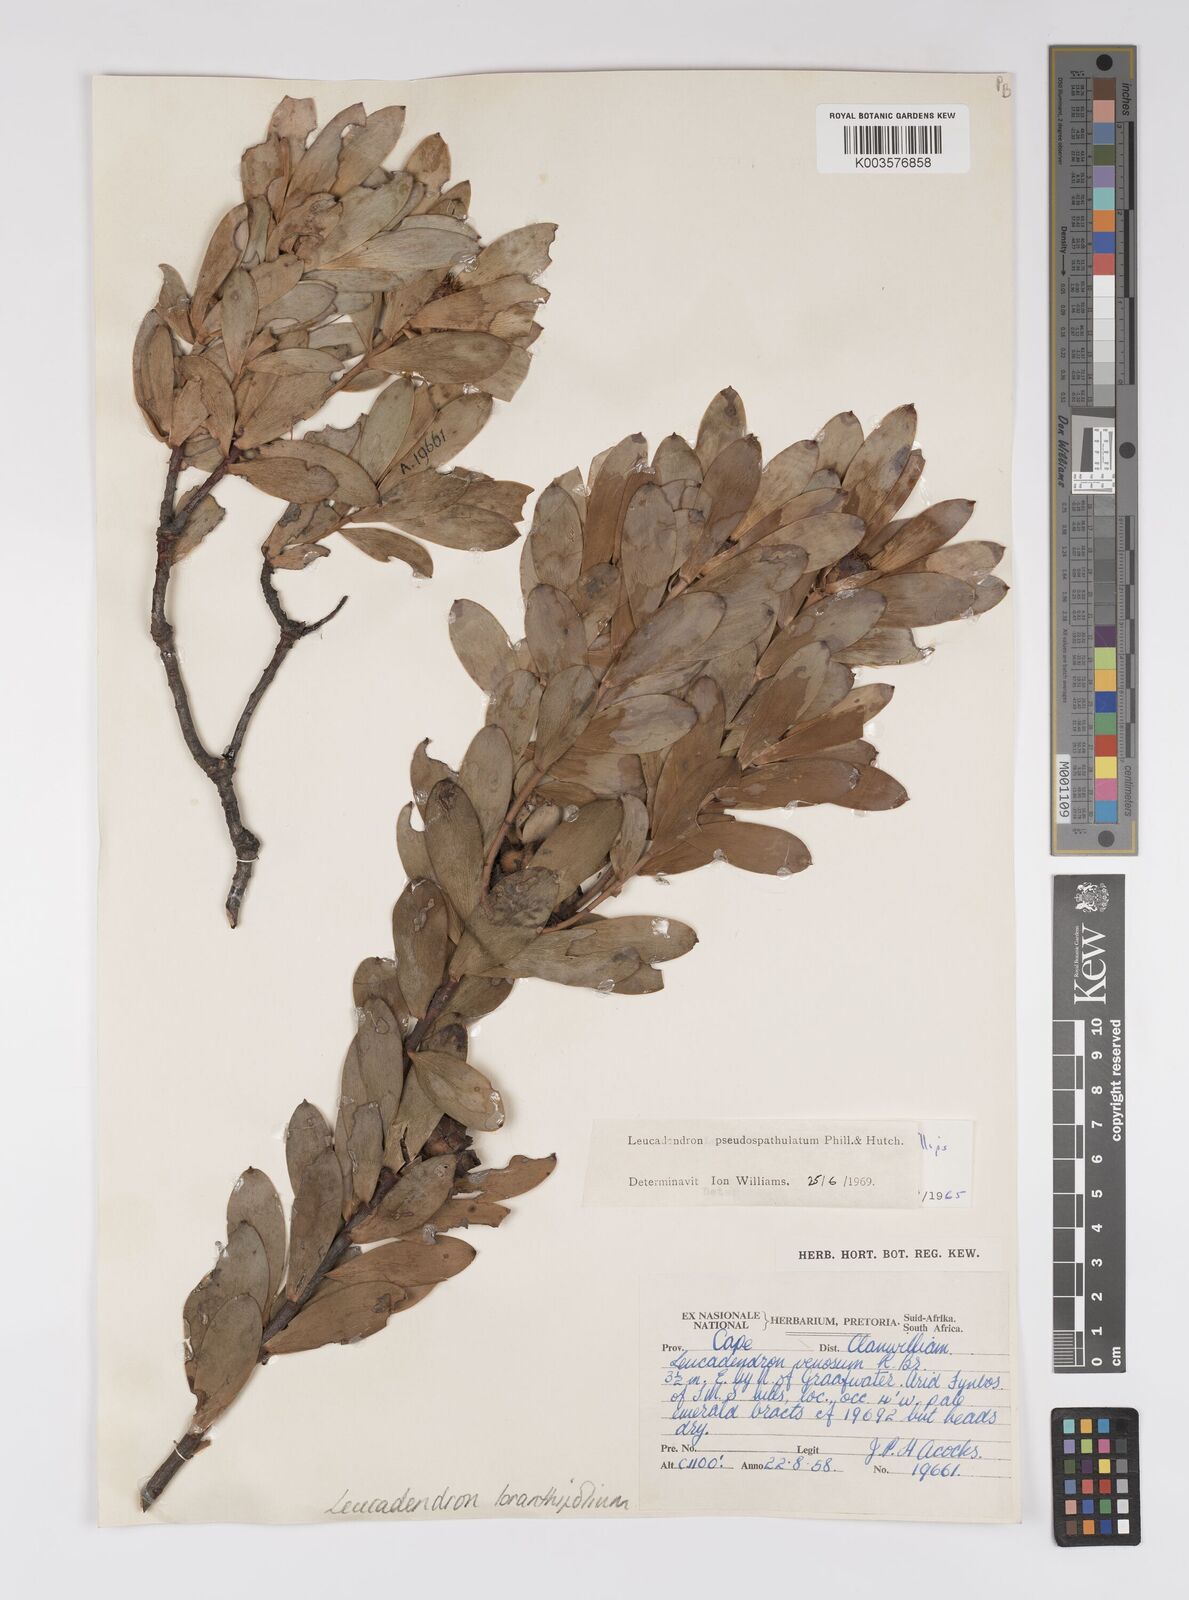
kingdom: Plantae
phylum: Tracheophyta
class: Magnoliopsida
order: Proteales
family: Proteaceae
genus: Leucadendron
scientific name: Leucadendron loranthifolium
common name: Green-flower sunbush
